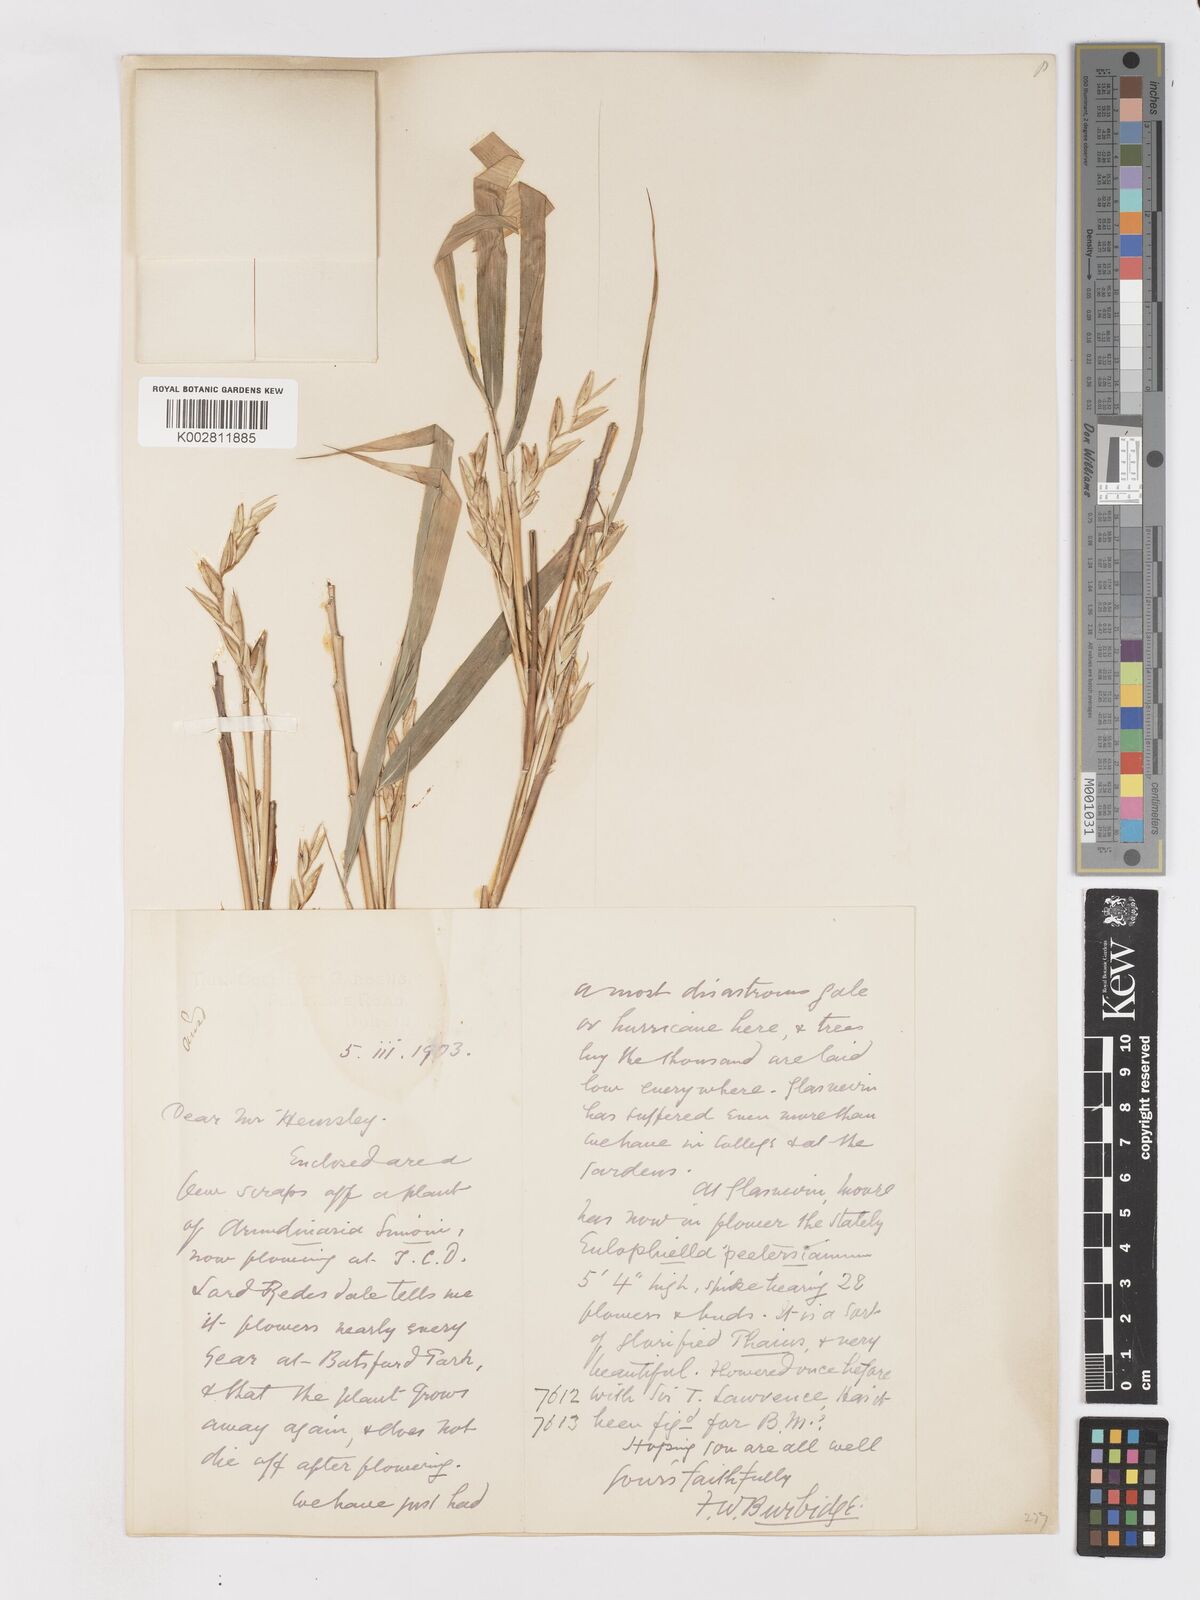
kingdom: Plantae
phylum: Tracheophyta
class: Liliopsida
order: Poales
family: Poaceae
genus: Pleioblastus
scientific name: Pleioblastus simonii
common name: Simon bamboo
